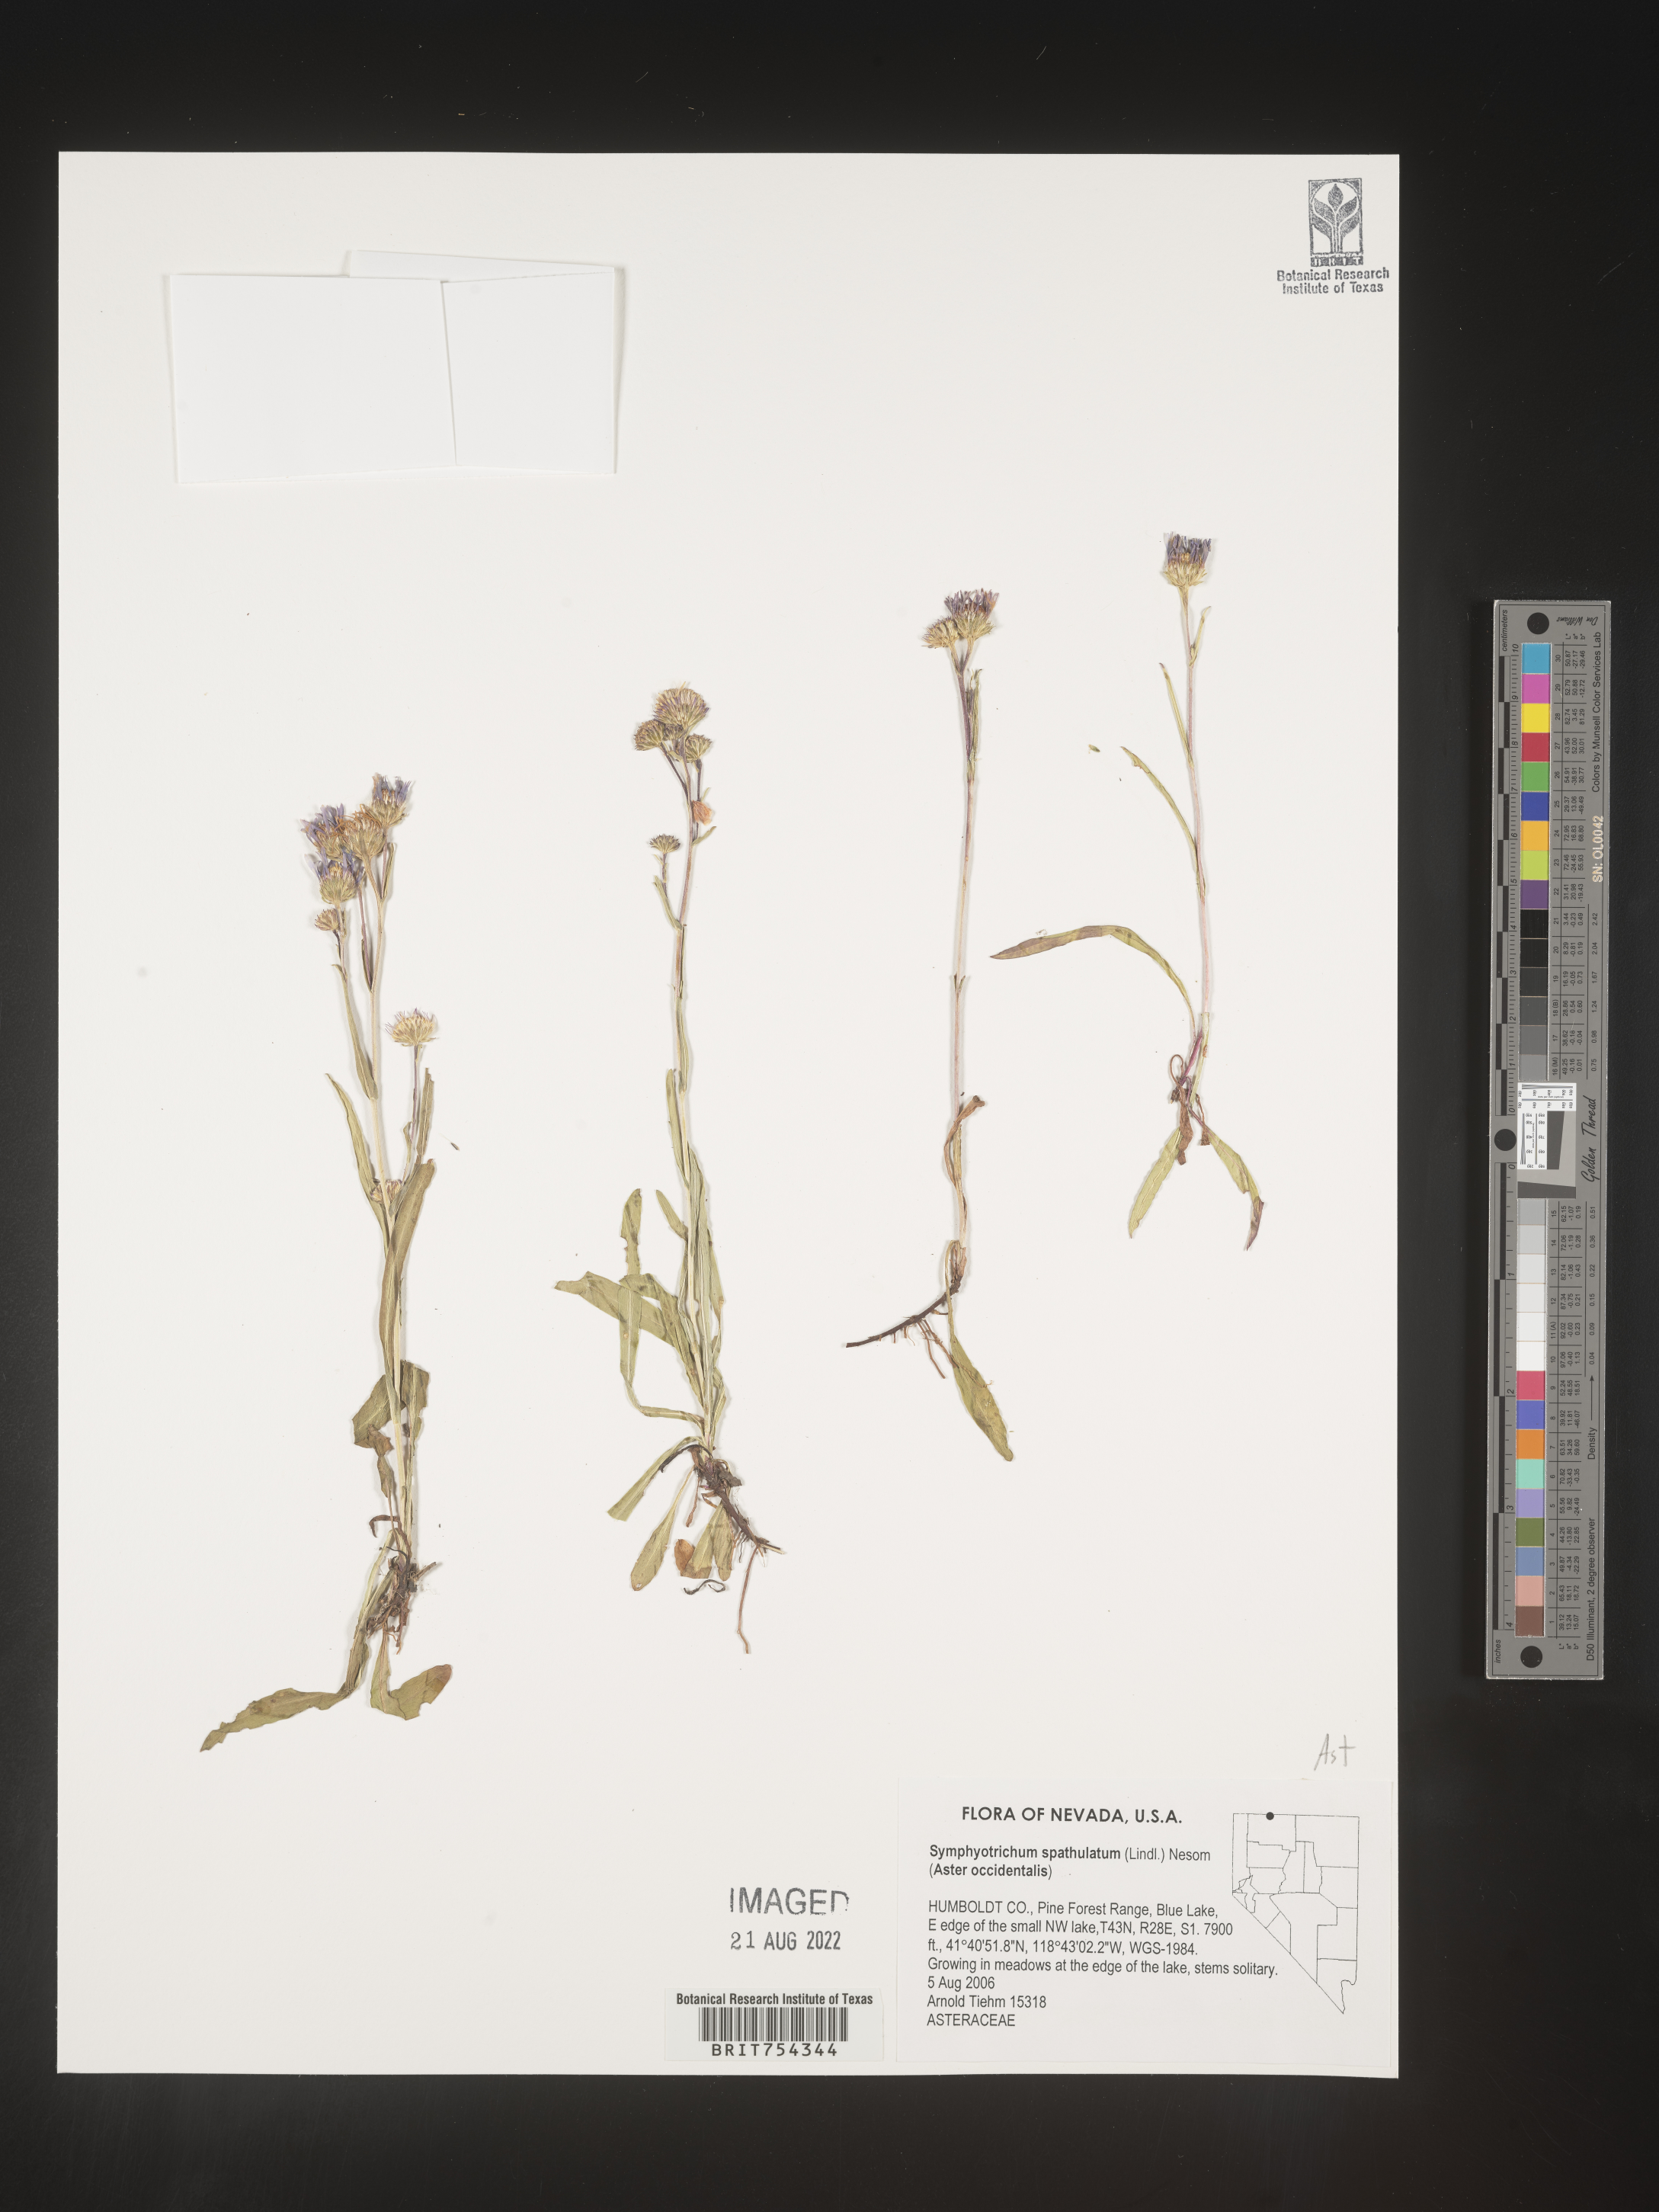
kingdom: Plantae
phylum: Tracheophyta
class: Magnoliopsida
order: Asterales
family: Asteraceae
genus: Symphyotrichum
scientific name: Symphyotrichum spathulatum
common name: Western mountain aster
